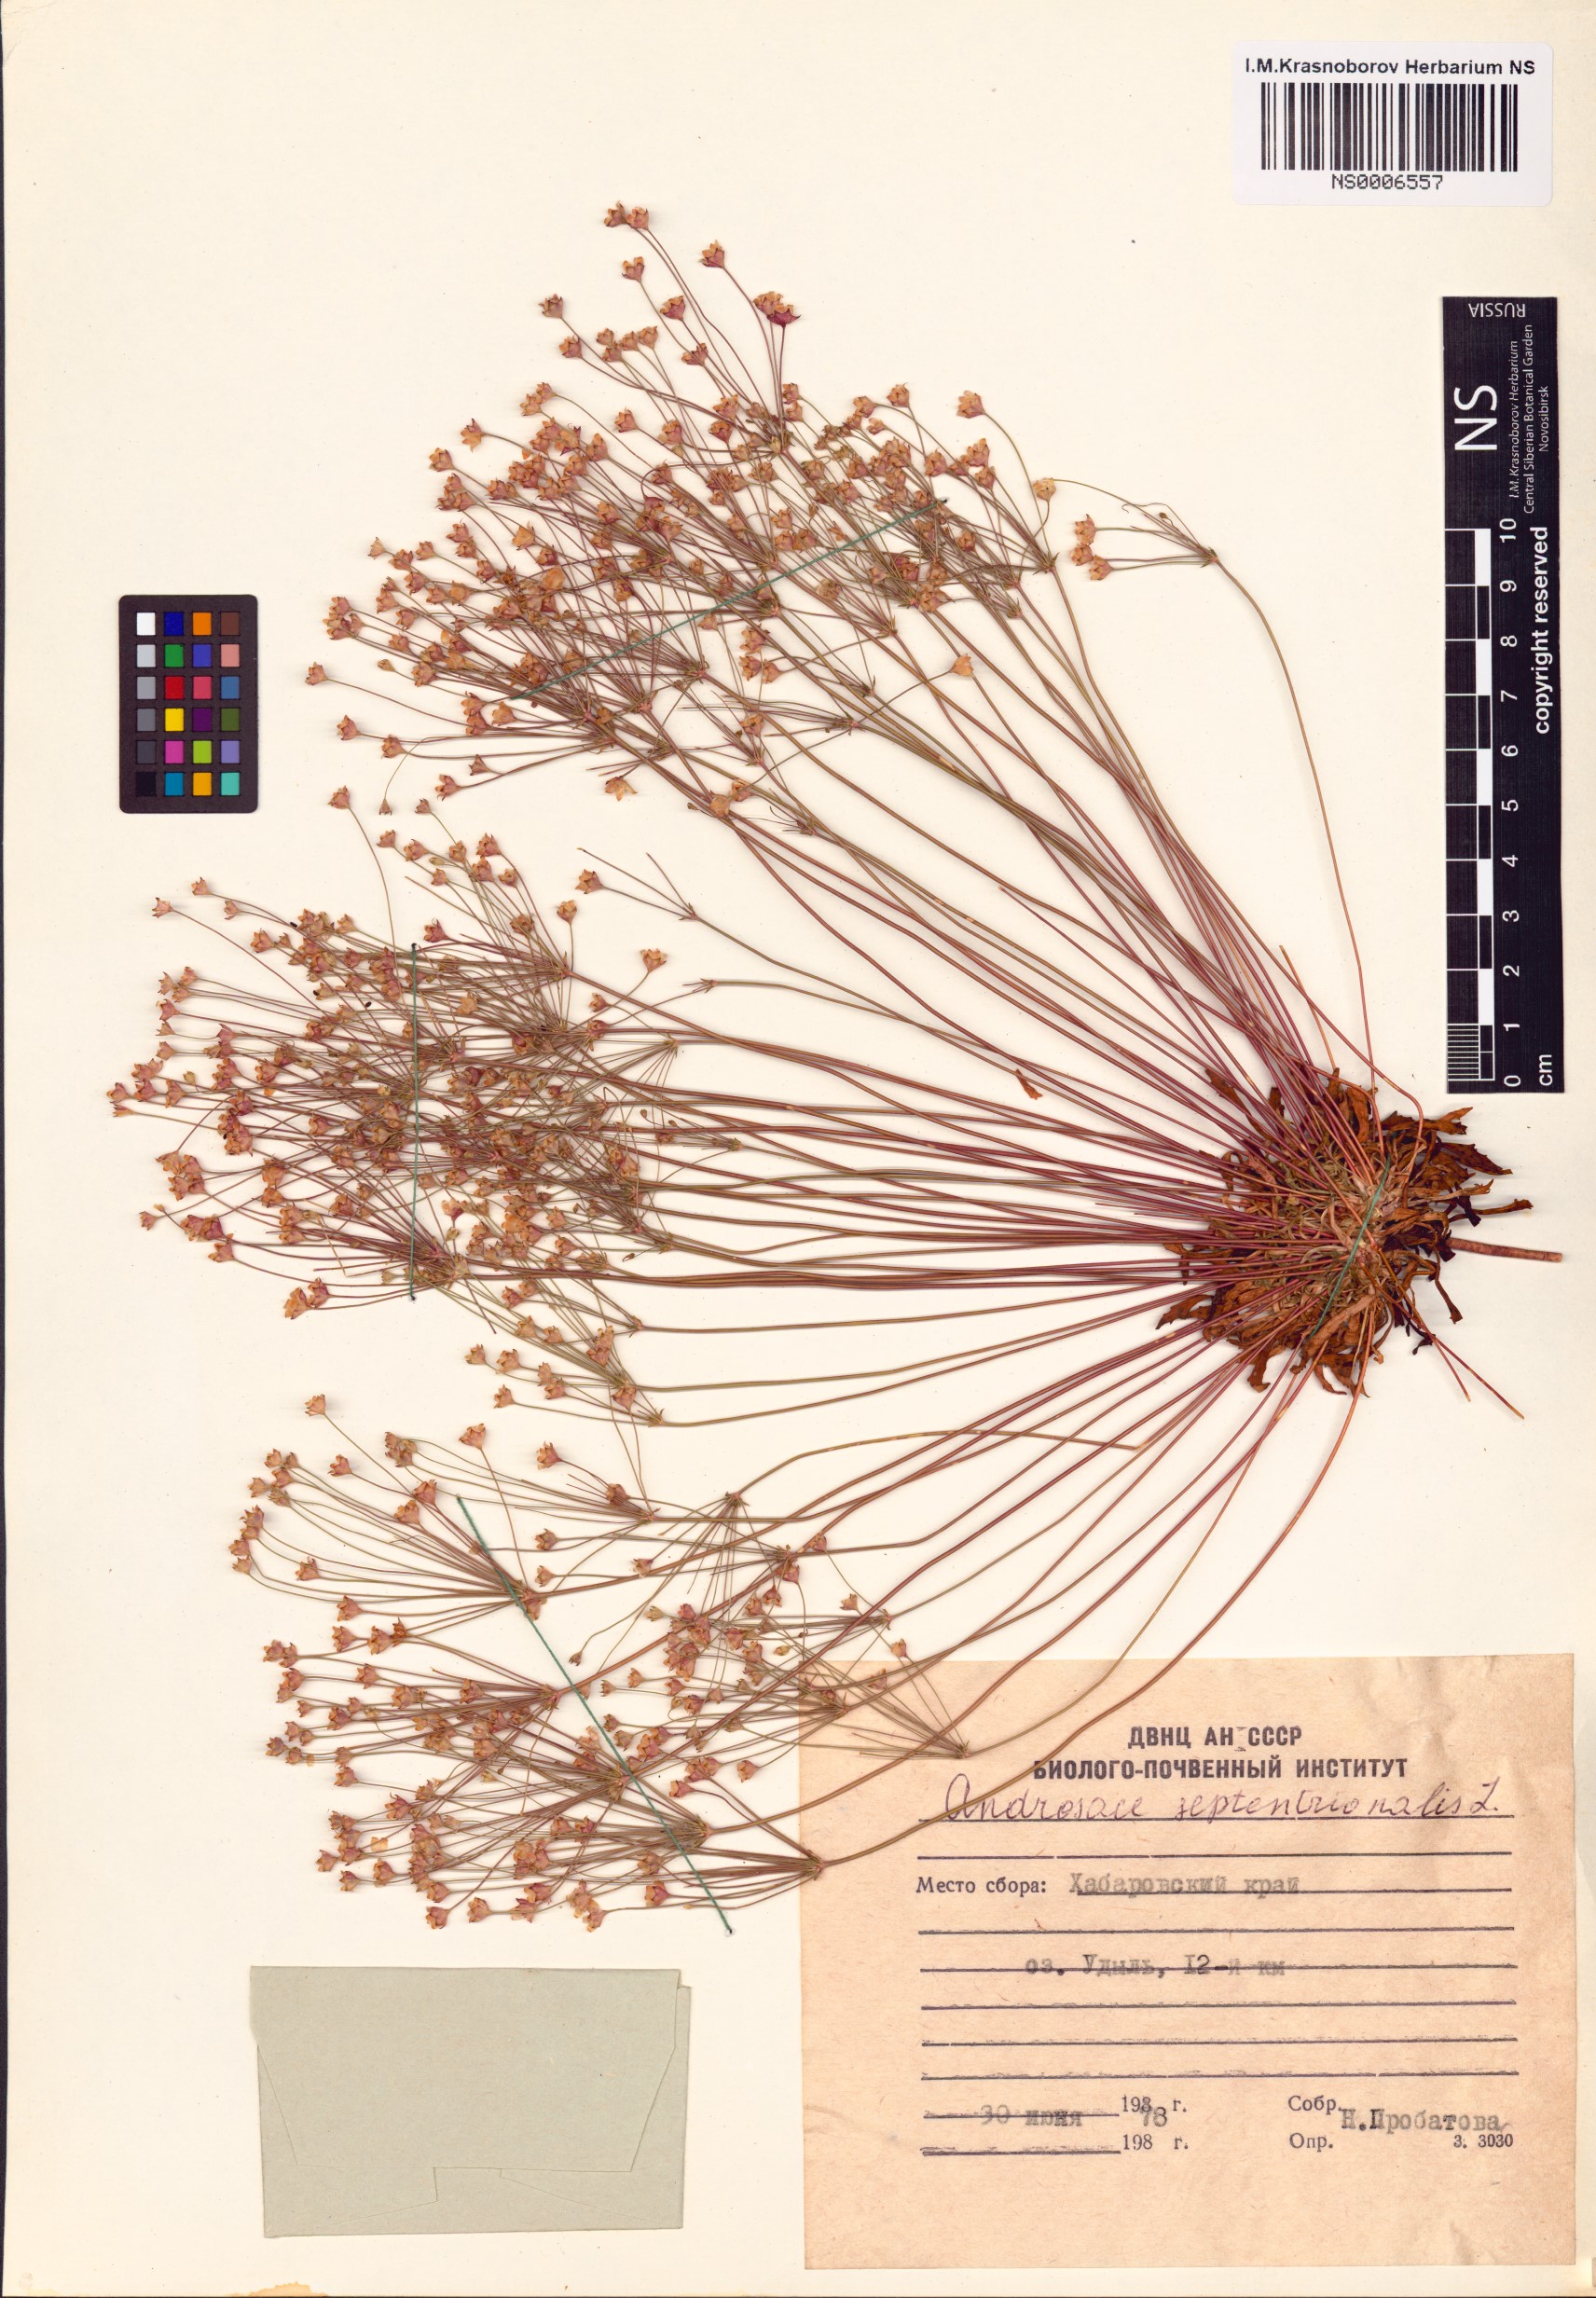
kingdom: Plantae
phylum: Tracheophyta
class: Magnoliopsida
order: Ericales
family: Primulaceae
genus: Androsace
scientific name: Androsace septentrionalis
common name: Hairy northern fairy-candelabra
